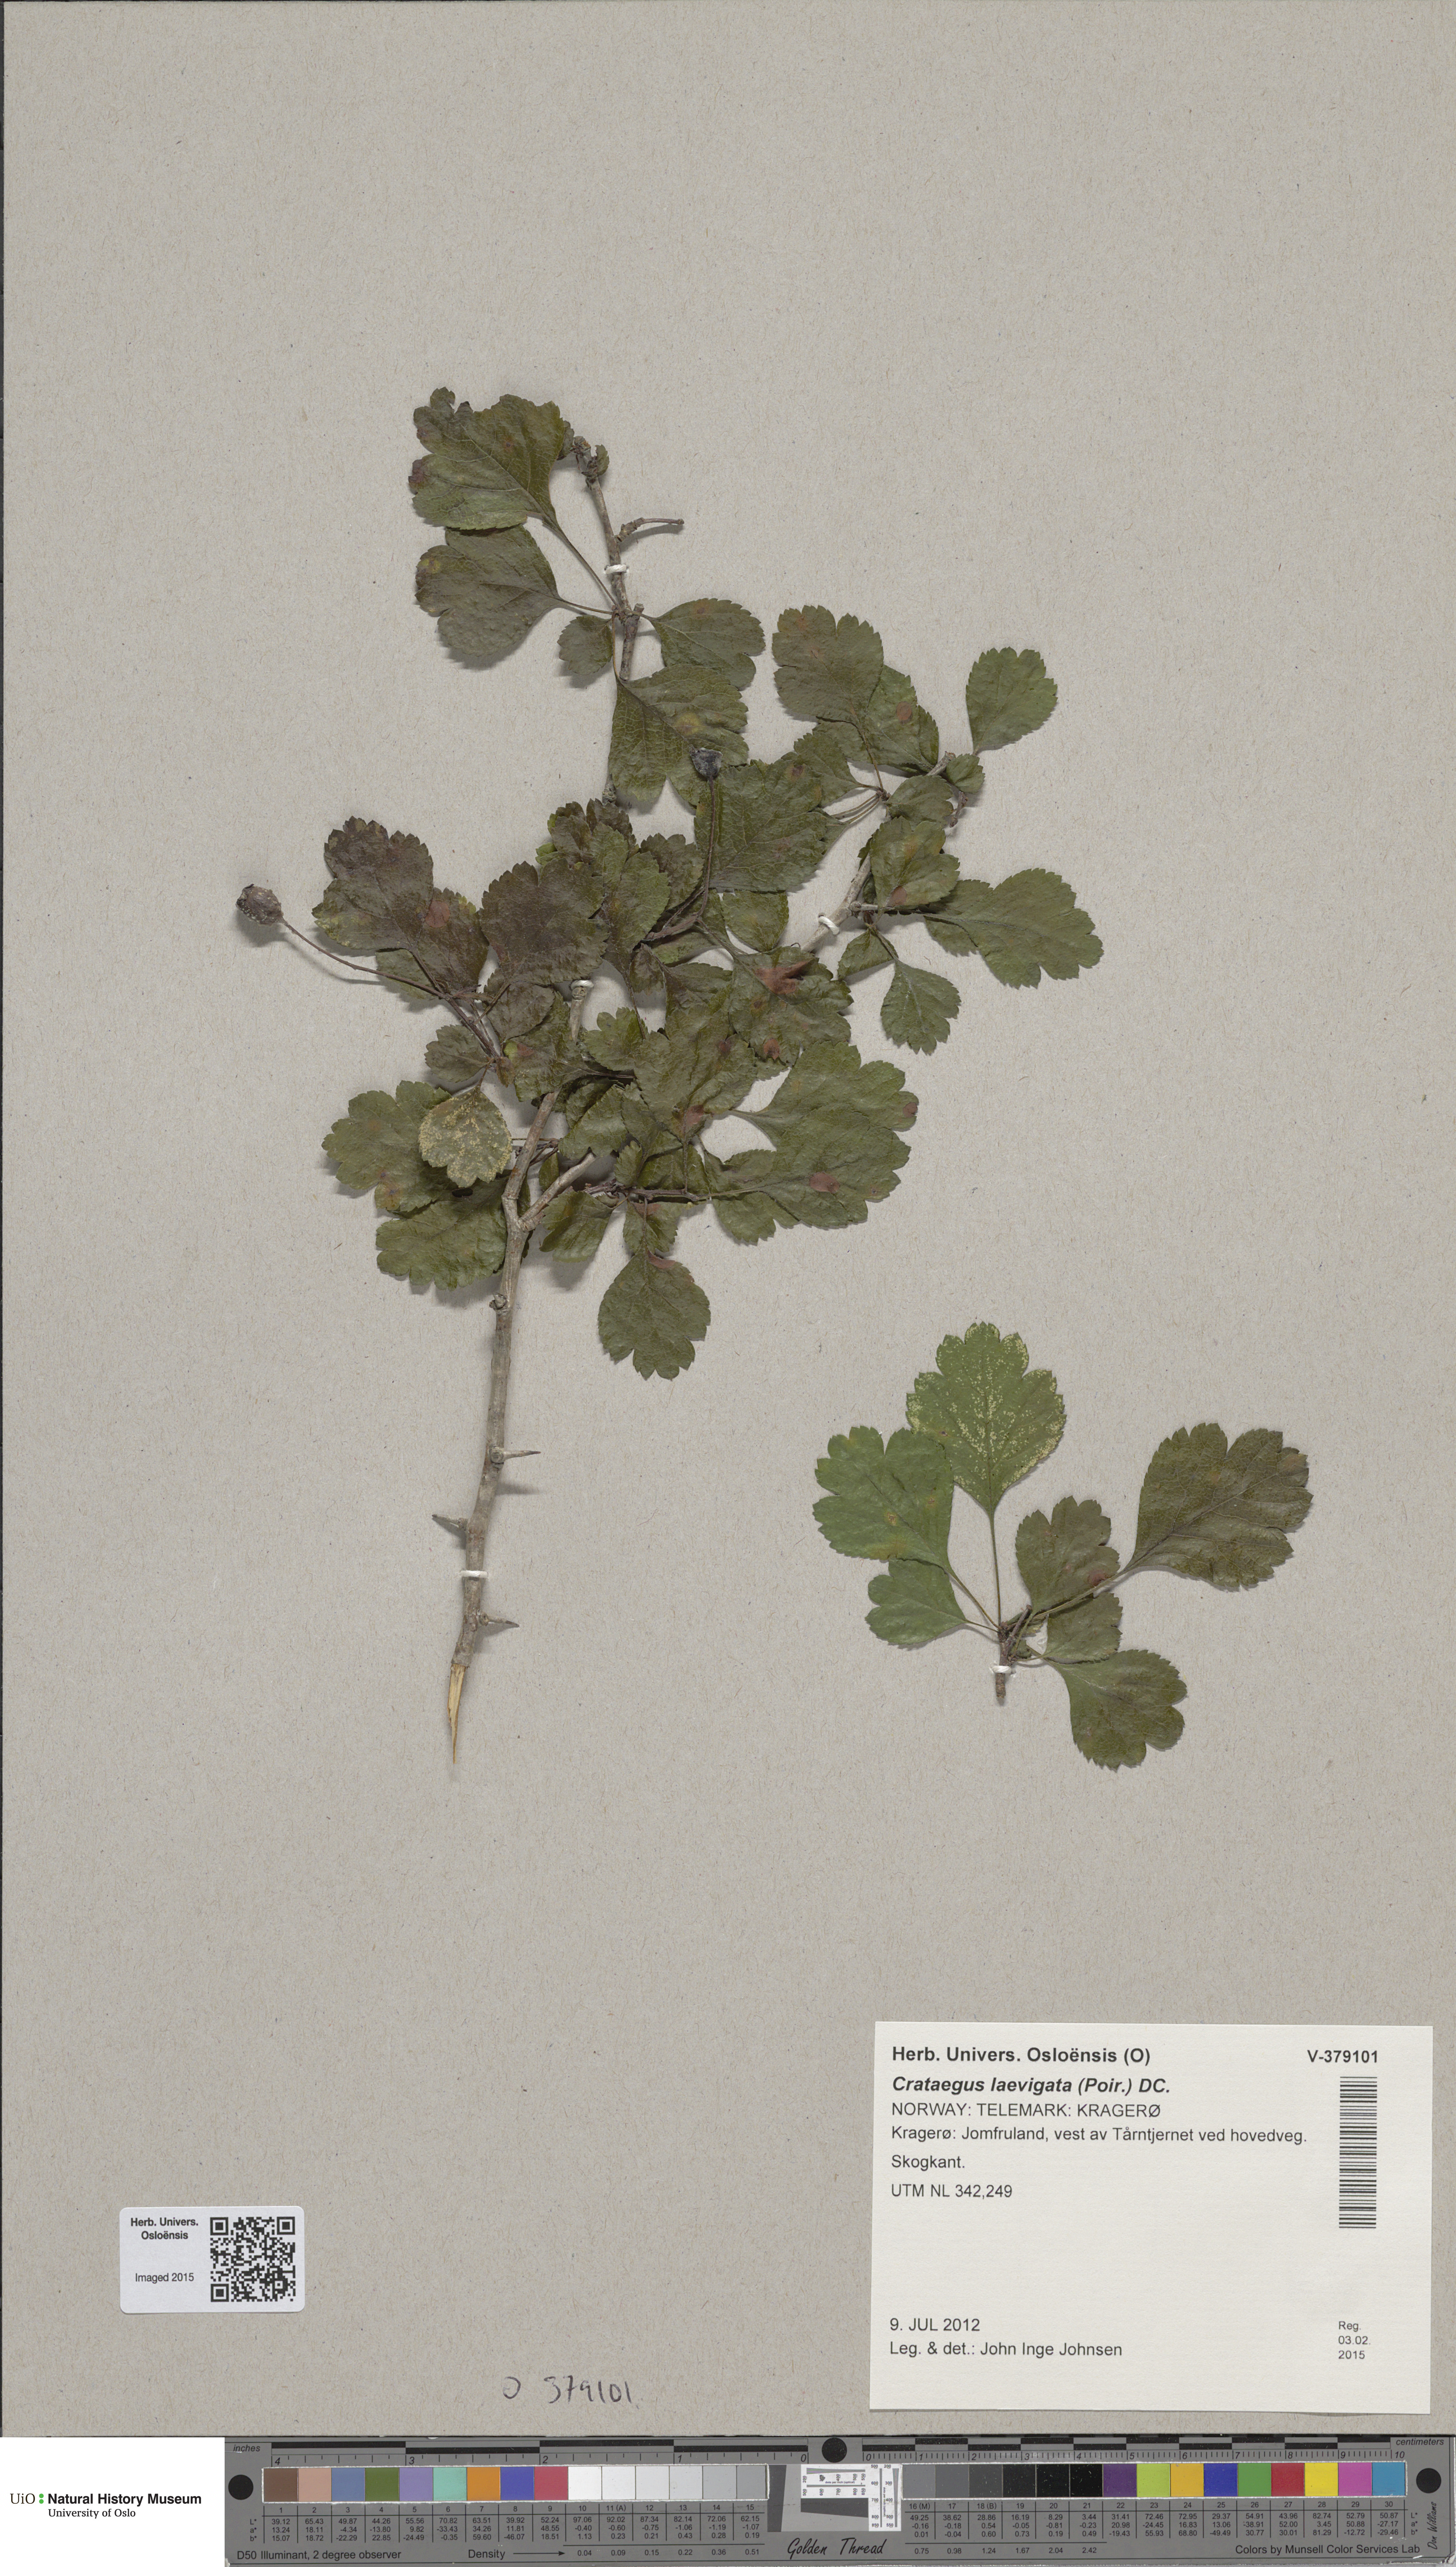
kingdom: Plantae
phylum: Tracheophyta
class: Magnoliopsida
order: Rosales
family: Rosaceae
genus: Crataegus
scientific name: Crataegus laevigata
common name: Midland hawthorn
